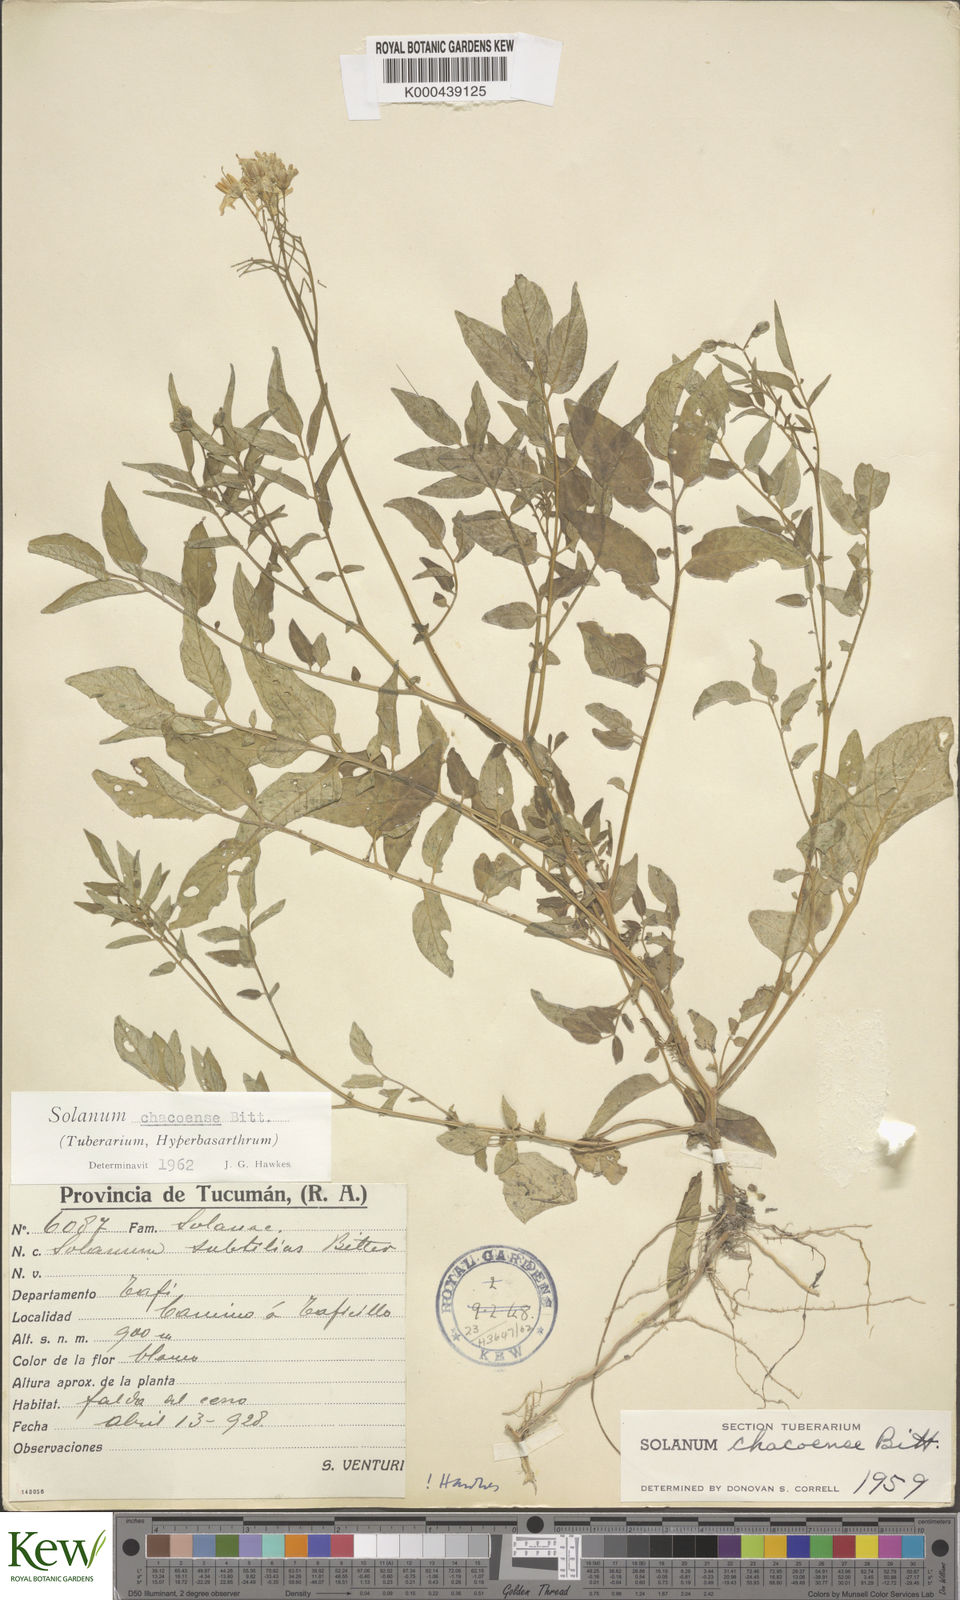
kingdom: Plantae
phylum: Tracheophyta
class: Magnoliopsida
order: Solanales
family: Solanaceae
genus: Solanum
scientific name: Solanum chacoense
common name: Chaco potato
